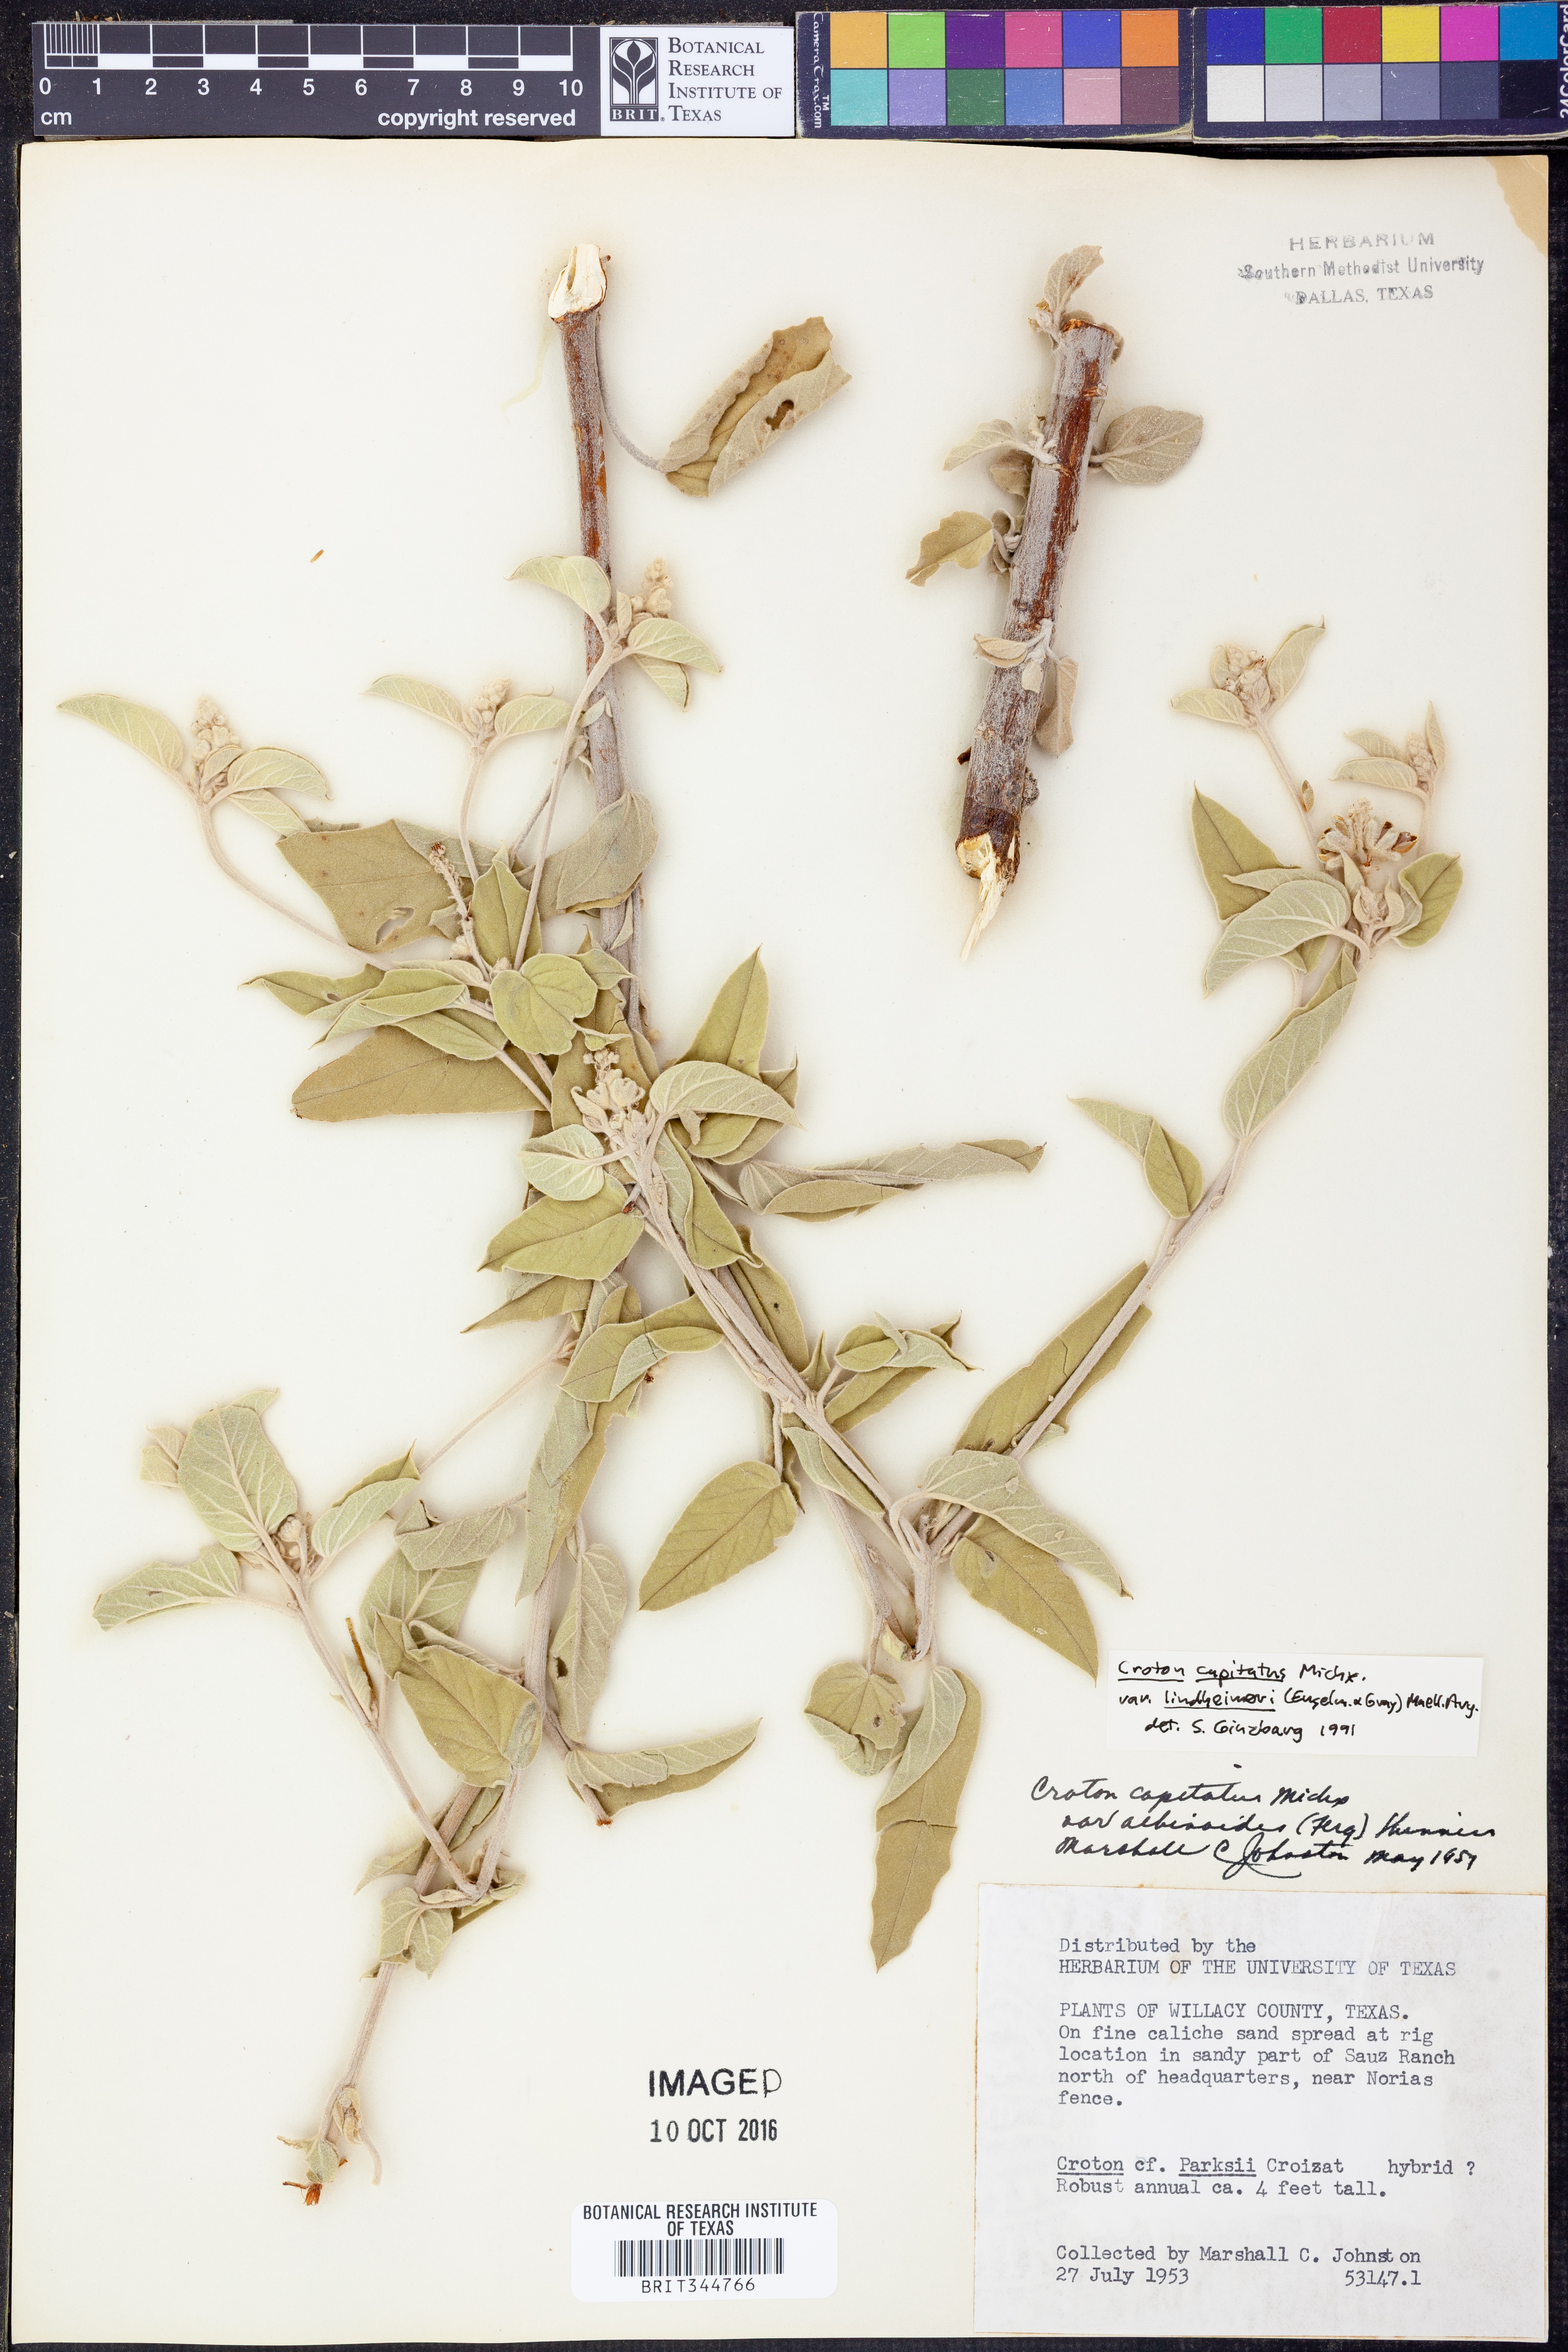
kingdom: Plantae
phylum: Tracheophyta
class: Magnoliopsida
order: Malpighiales
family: Euphorbiaceae
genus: Croton
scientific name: Croton lindheimeri
